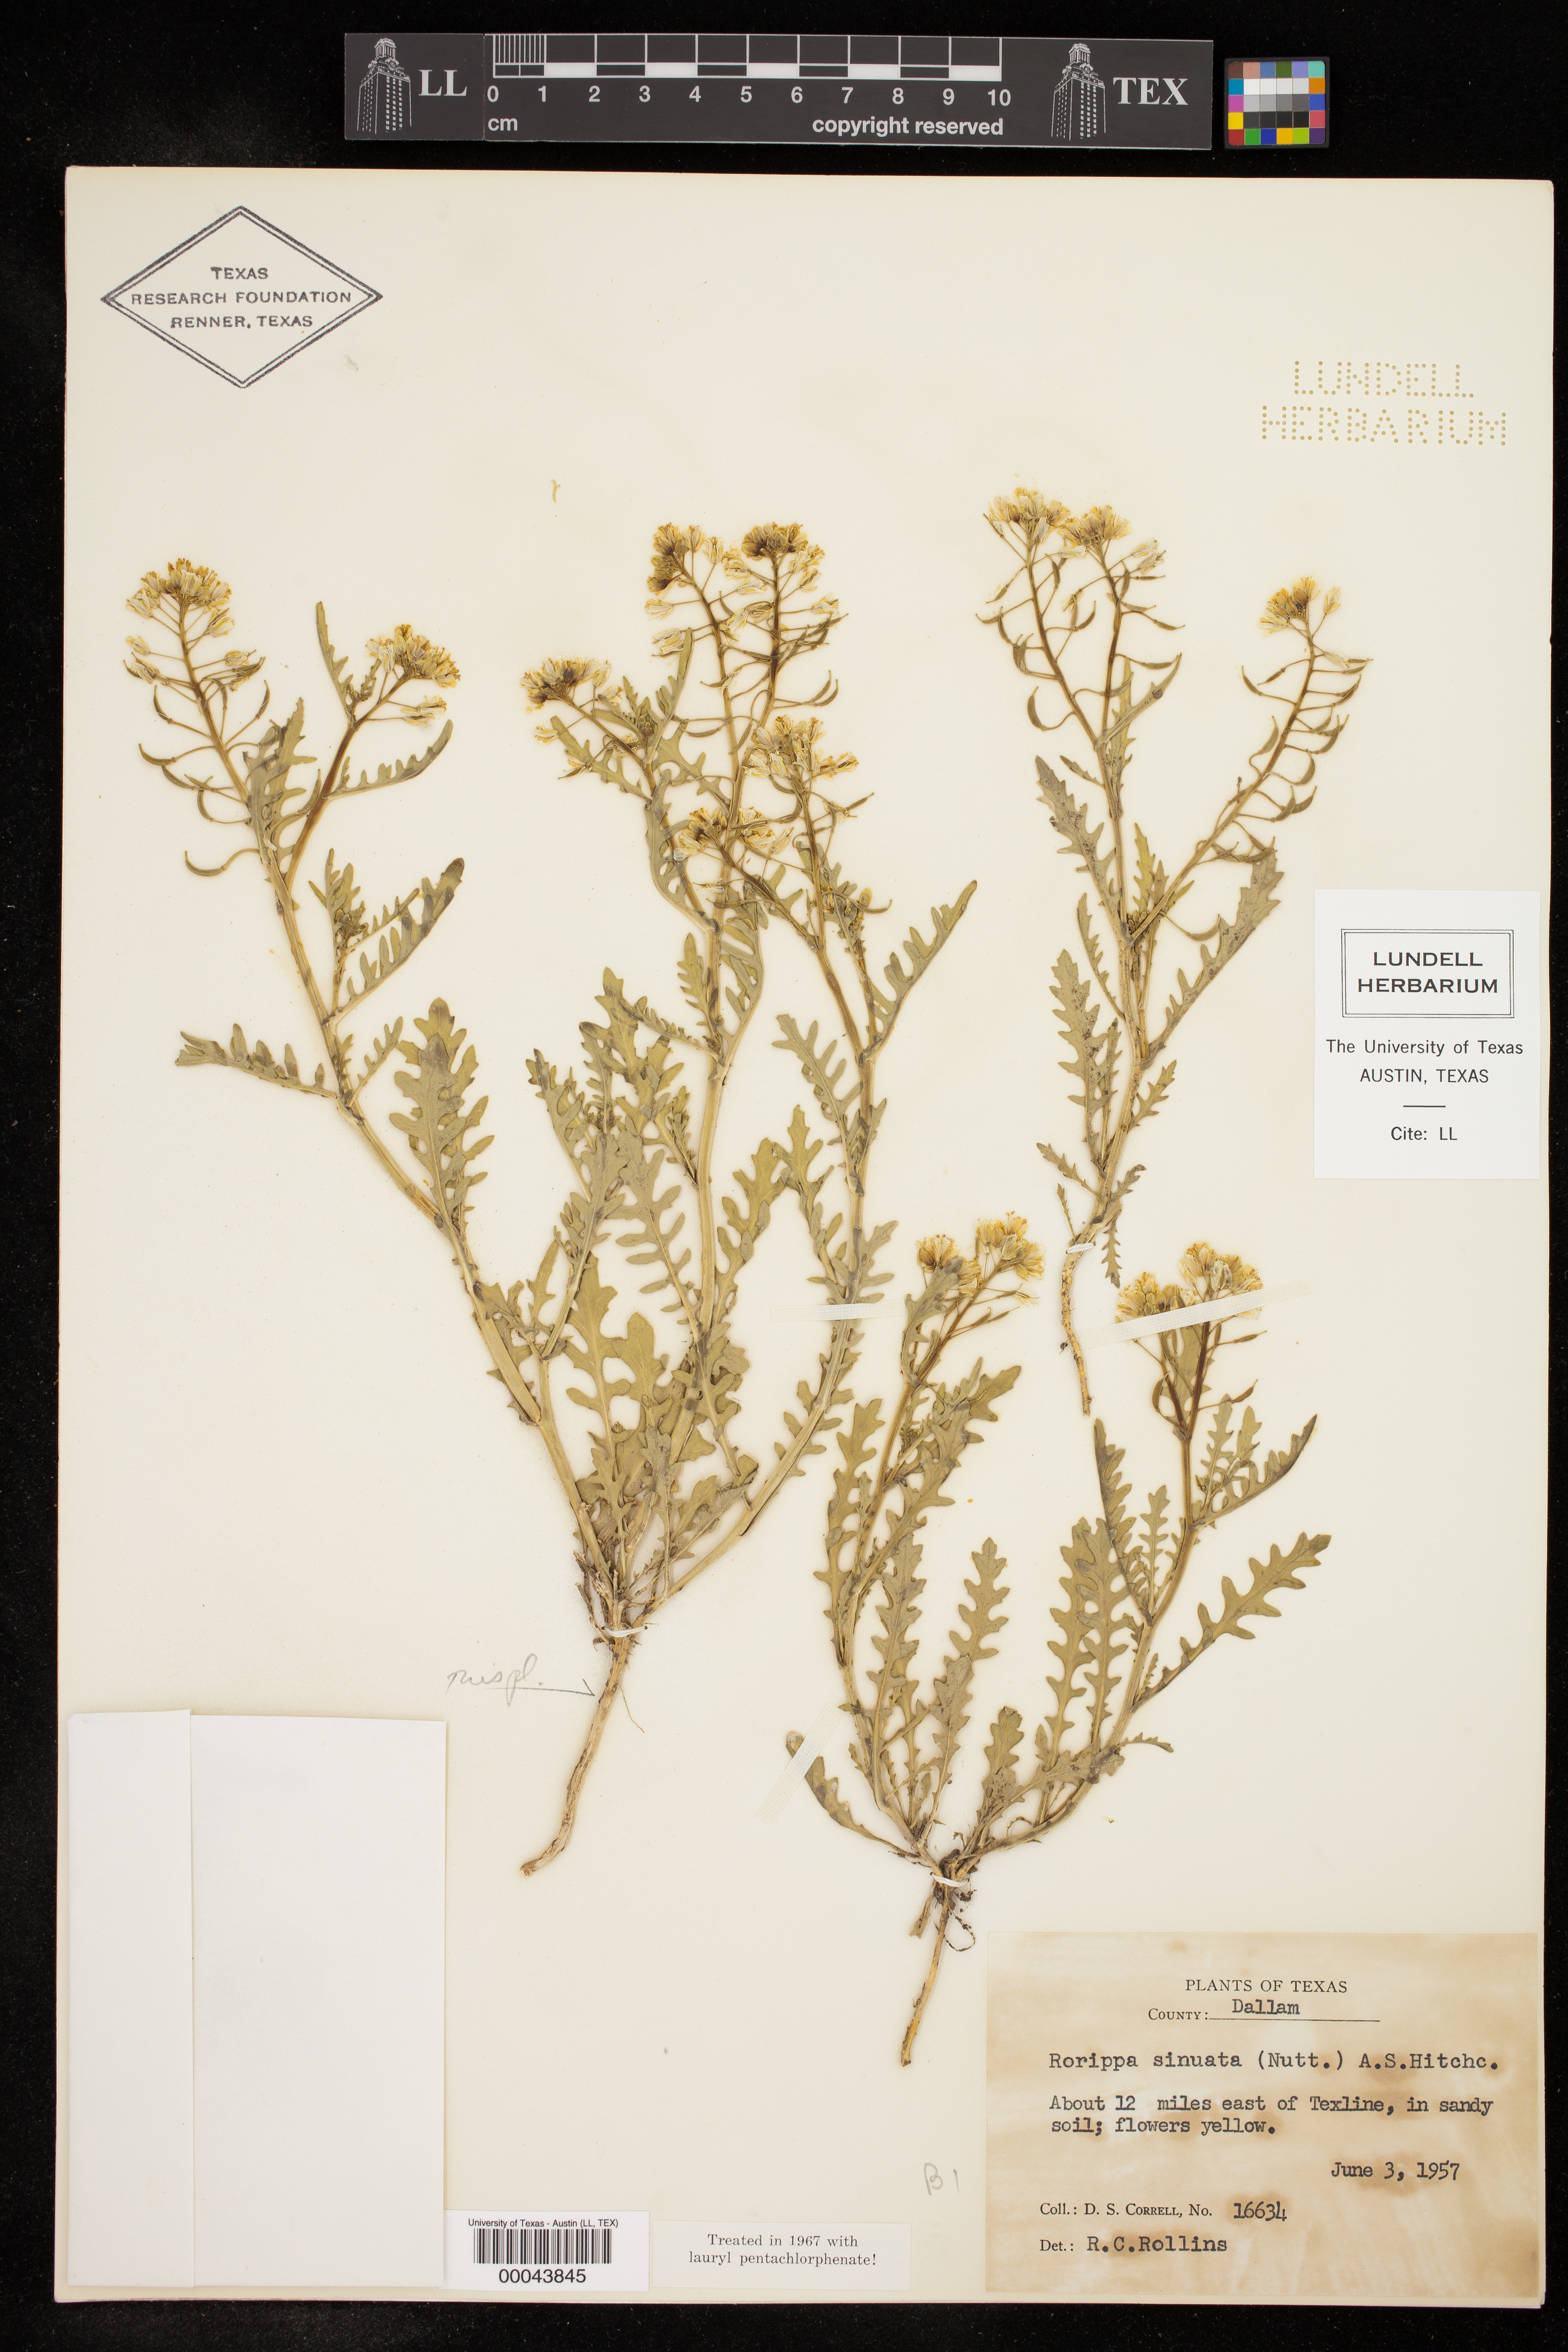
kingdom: Plantae
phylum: Tracheophyta
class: Magnoliopsida
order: Brassicales
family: Brassicaceae
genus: Rorippa
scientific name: Rorippa sinuata
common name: Spread yellow cress
